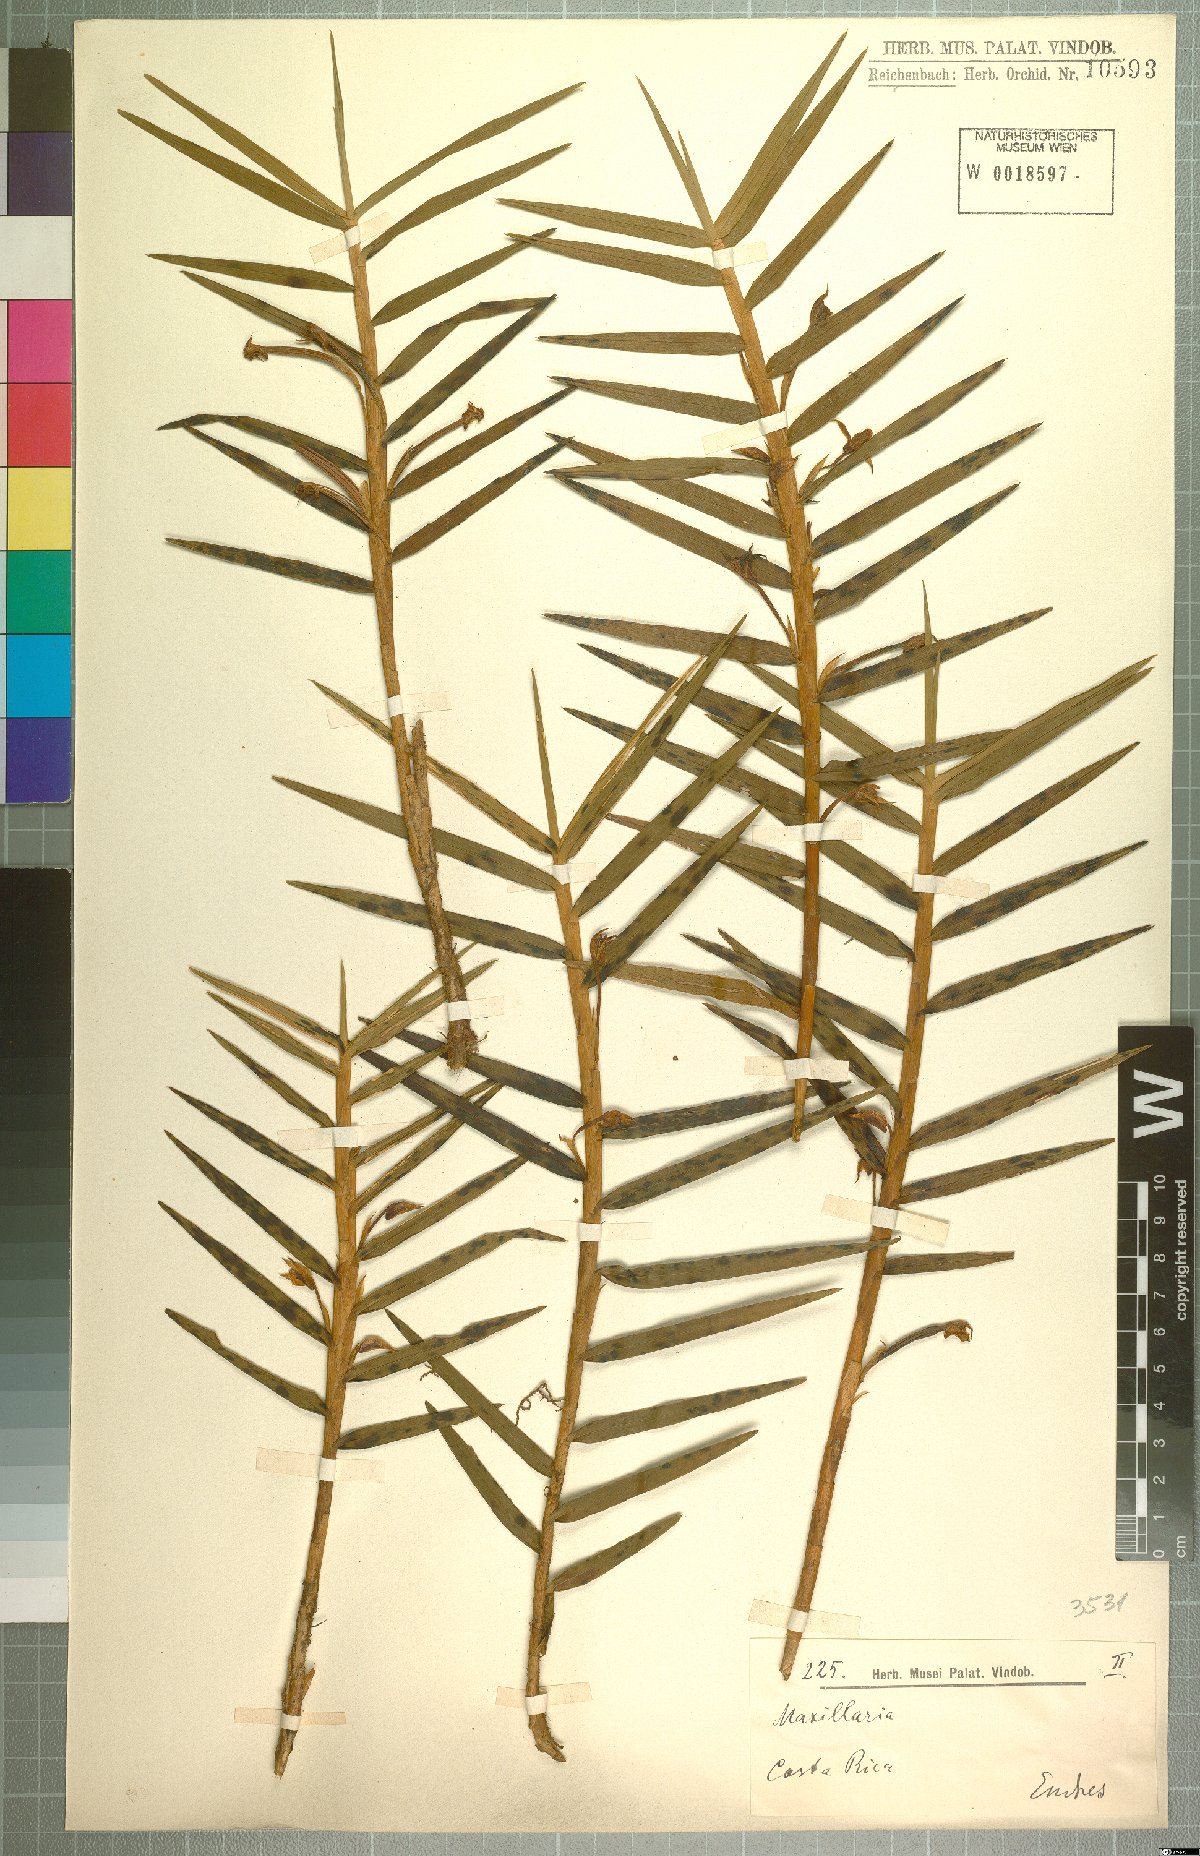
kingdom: Plantae
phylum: Tracheophyta
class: Liliopsida
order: Asparagales
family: Orchidaceae
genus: Maxillaria
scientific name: Maxillaria
